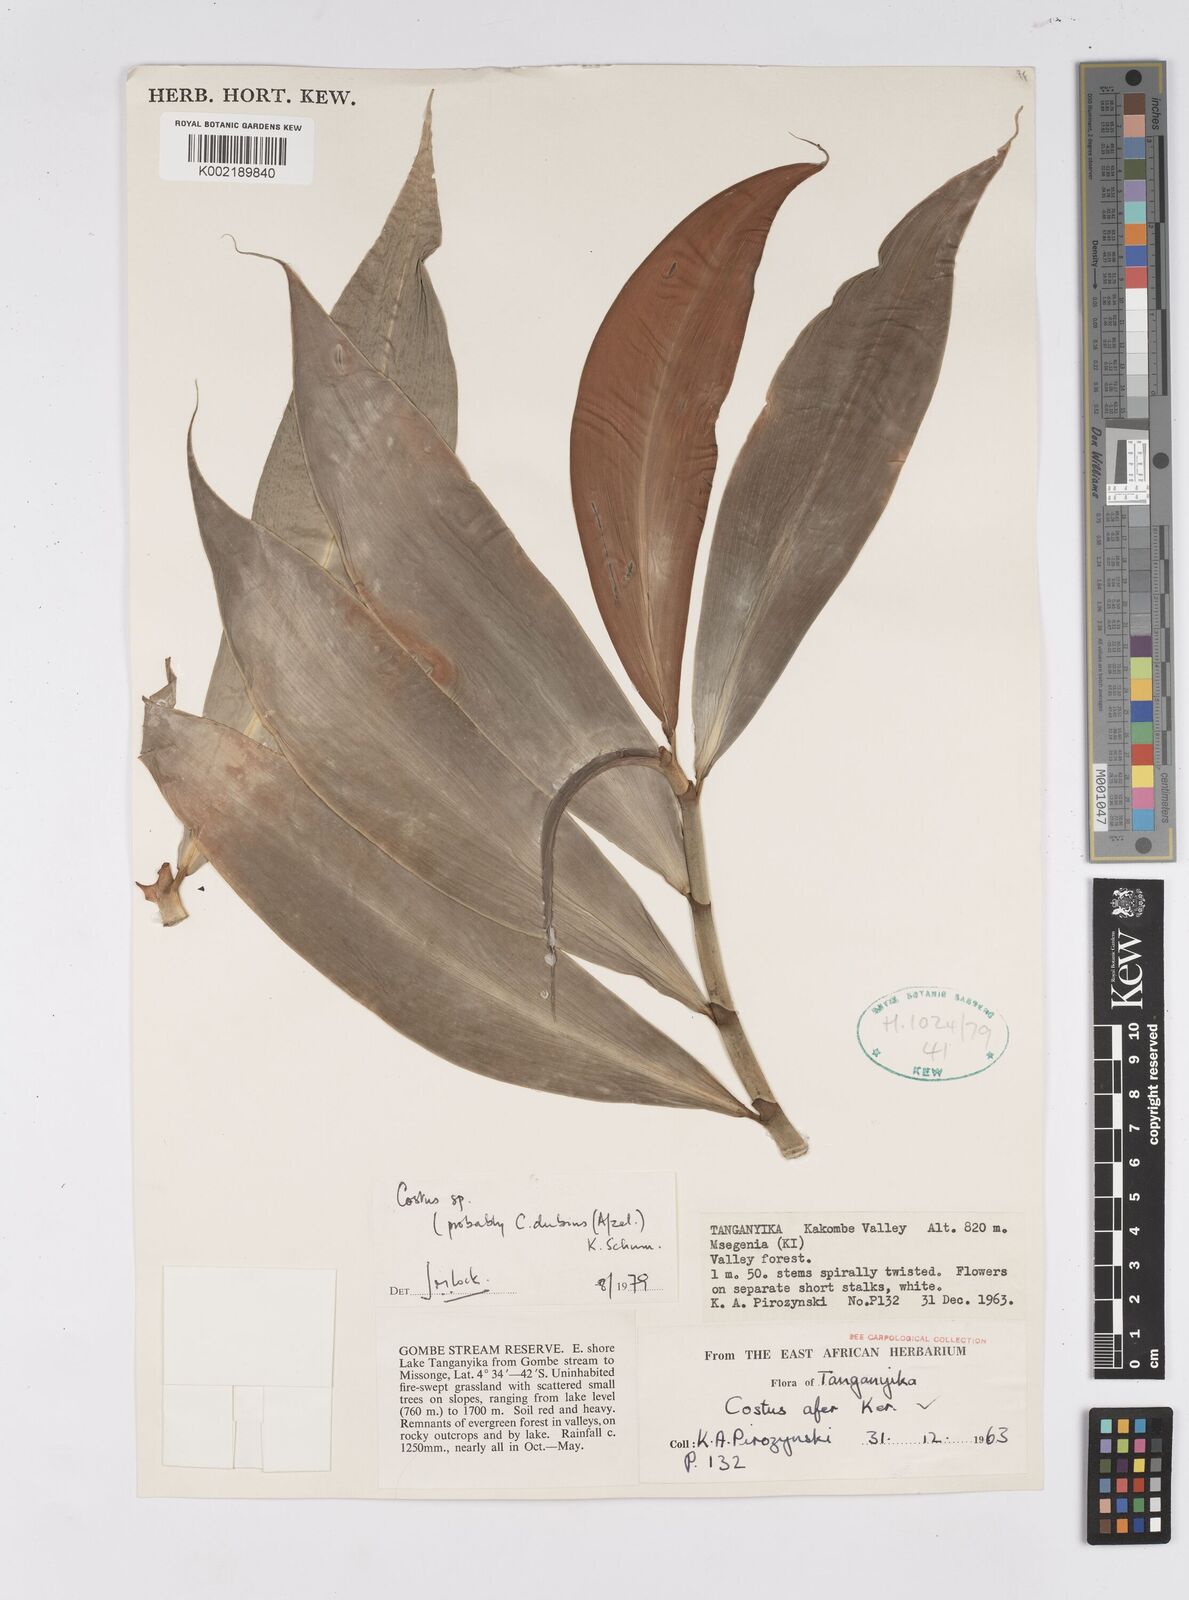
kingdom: Plantae
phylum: Tracheophyta
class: Liliopsida
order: Zingiberales
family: Costaceae
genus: Costus
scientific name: Costus
